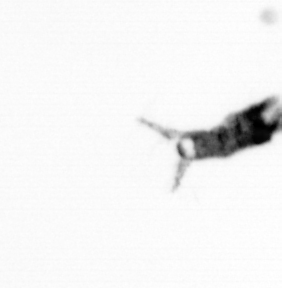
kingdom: Animalia
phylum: Arthropoda
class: Copepoda
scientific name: Copepoda
